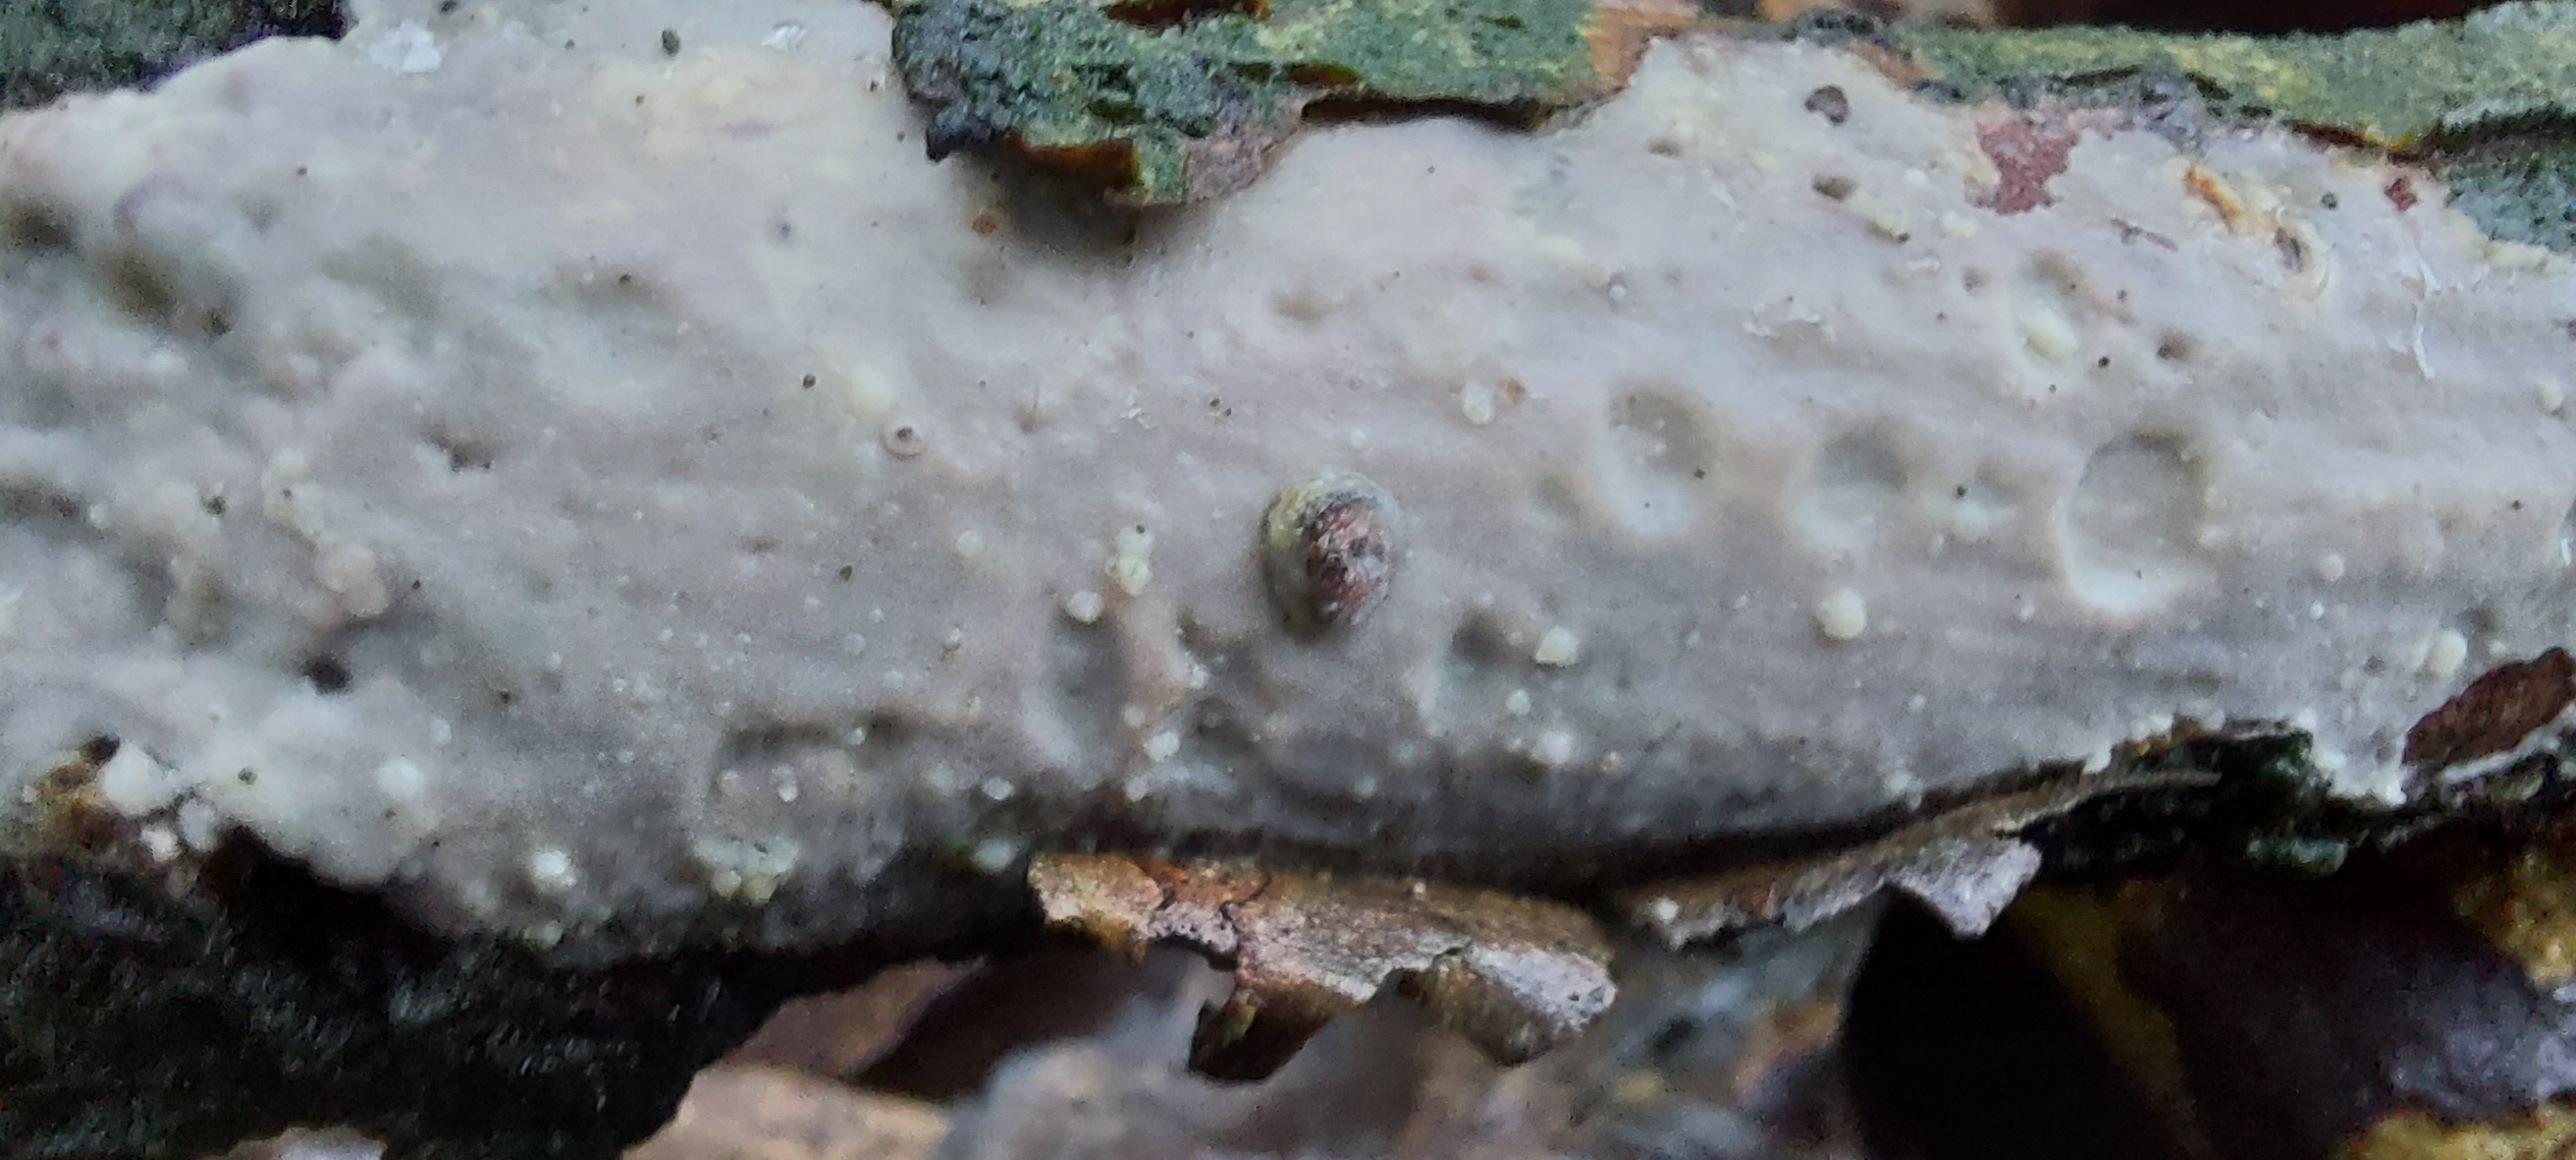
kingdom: Fungi
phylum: Basidiomycota
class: Agaricomycetes
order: Corticiales
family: Vuilleminiaceae
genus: Vuilleminia
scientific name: Vuilleminia
